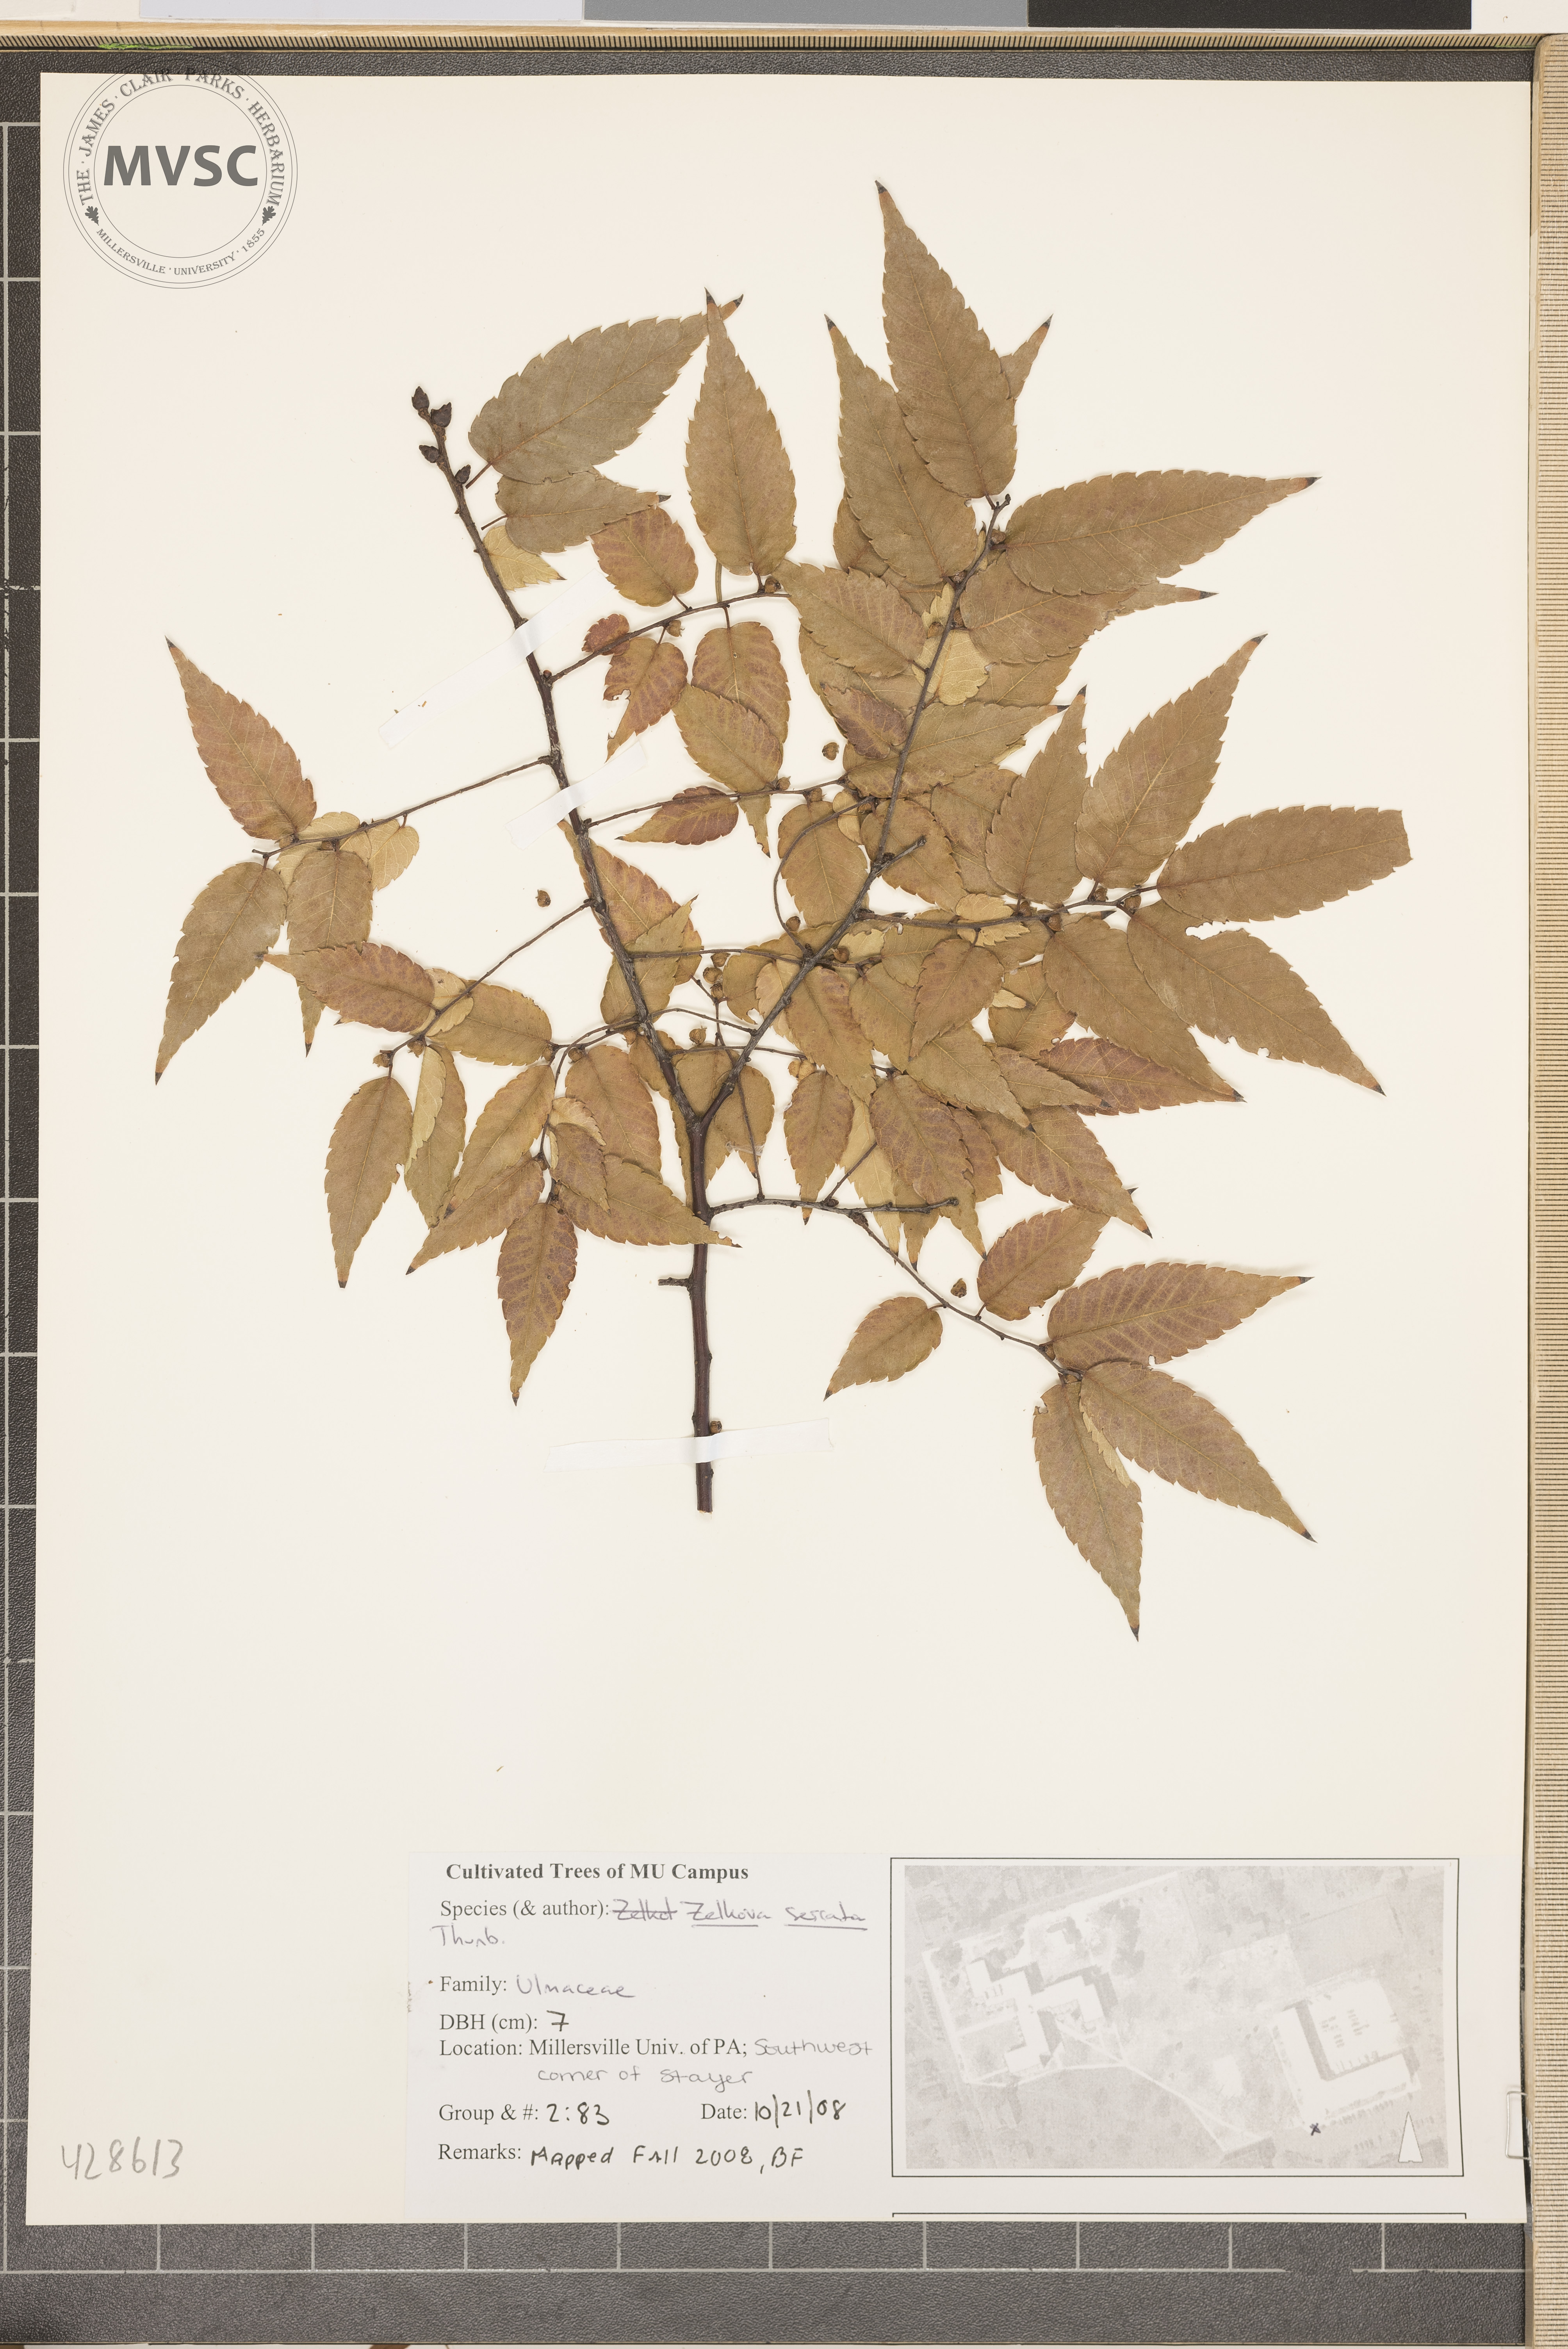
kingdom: Plantae
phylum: Tracheophyta
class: Magnoliopsida
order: Rosales
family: Ulmaceae
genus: Zelkova
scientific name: Zelkova serrata
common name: Japanese Zelkova
